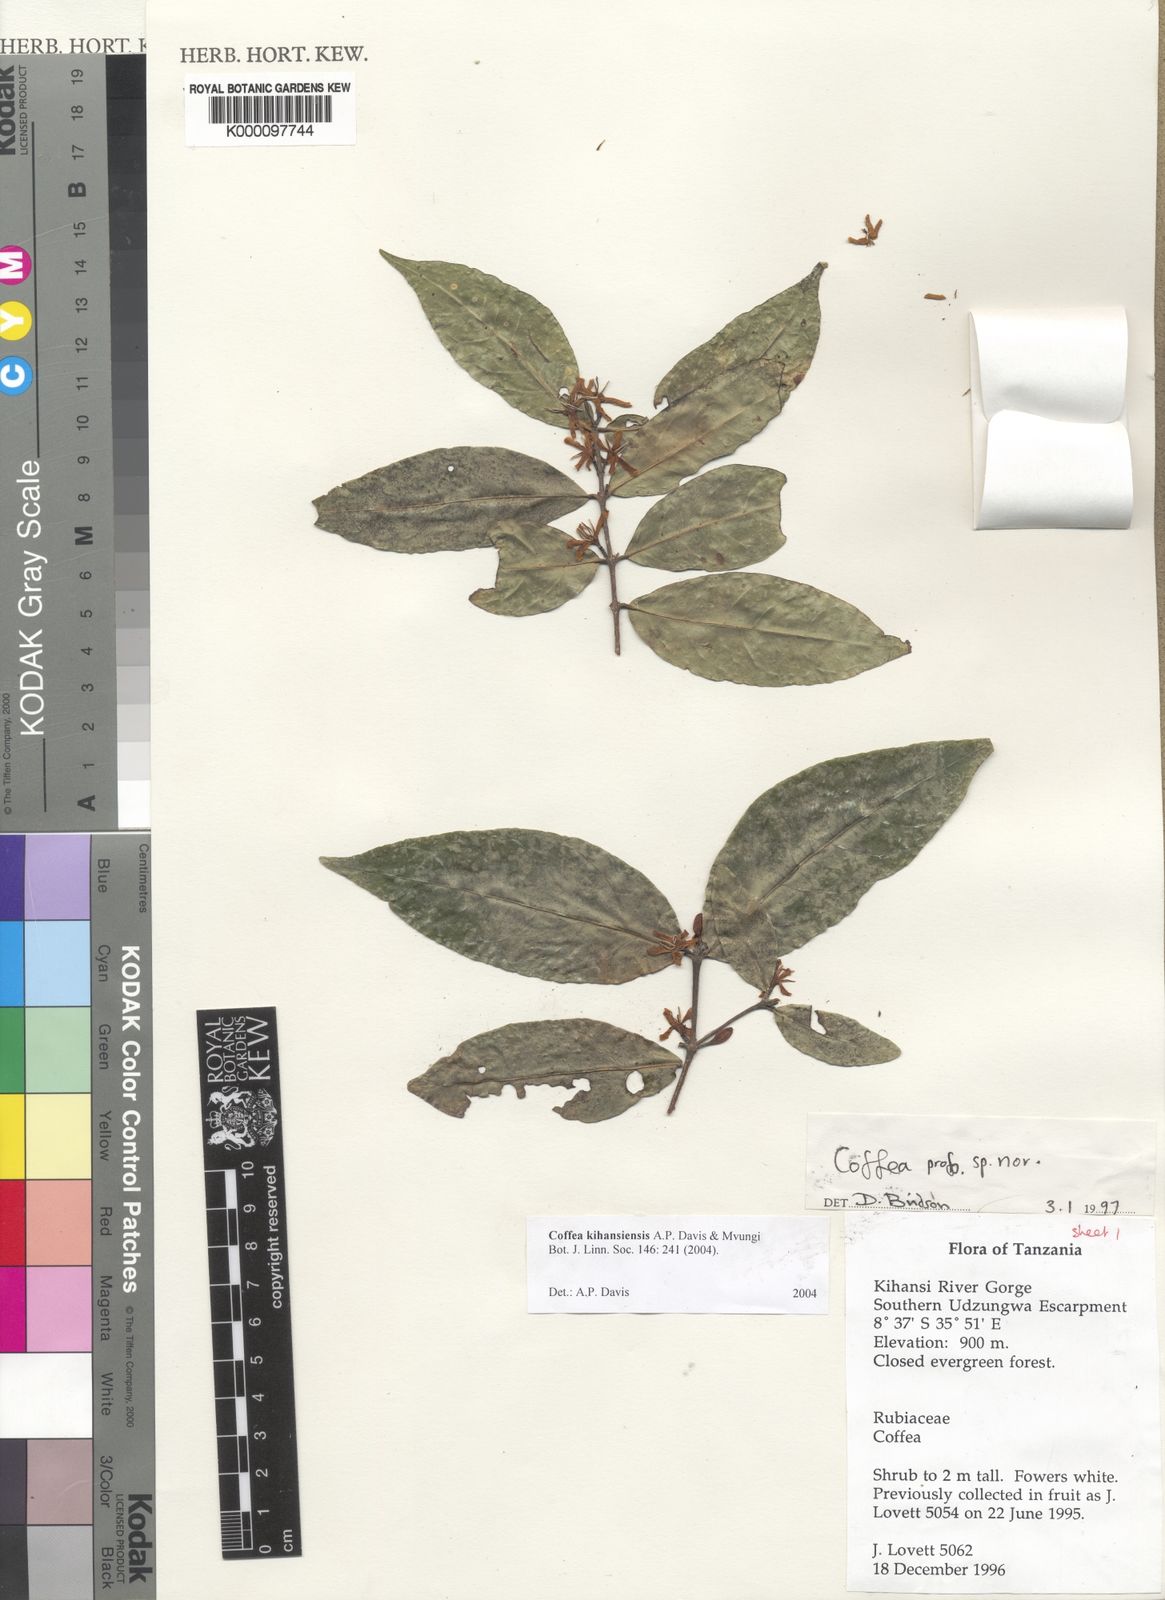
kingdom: Plantae
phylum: Tracheophyta
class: Magnoliopsida
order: Gentianales
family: Rubiaceae
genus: Coffea
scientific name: Coffea kihansiensis
